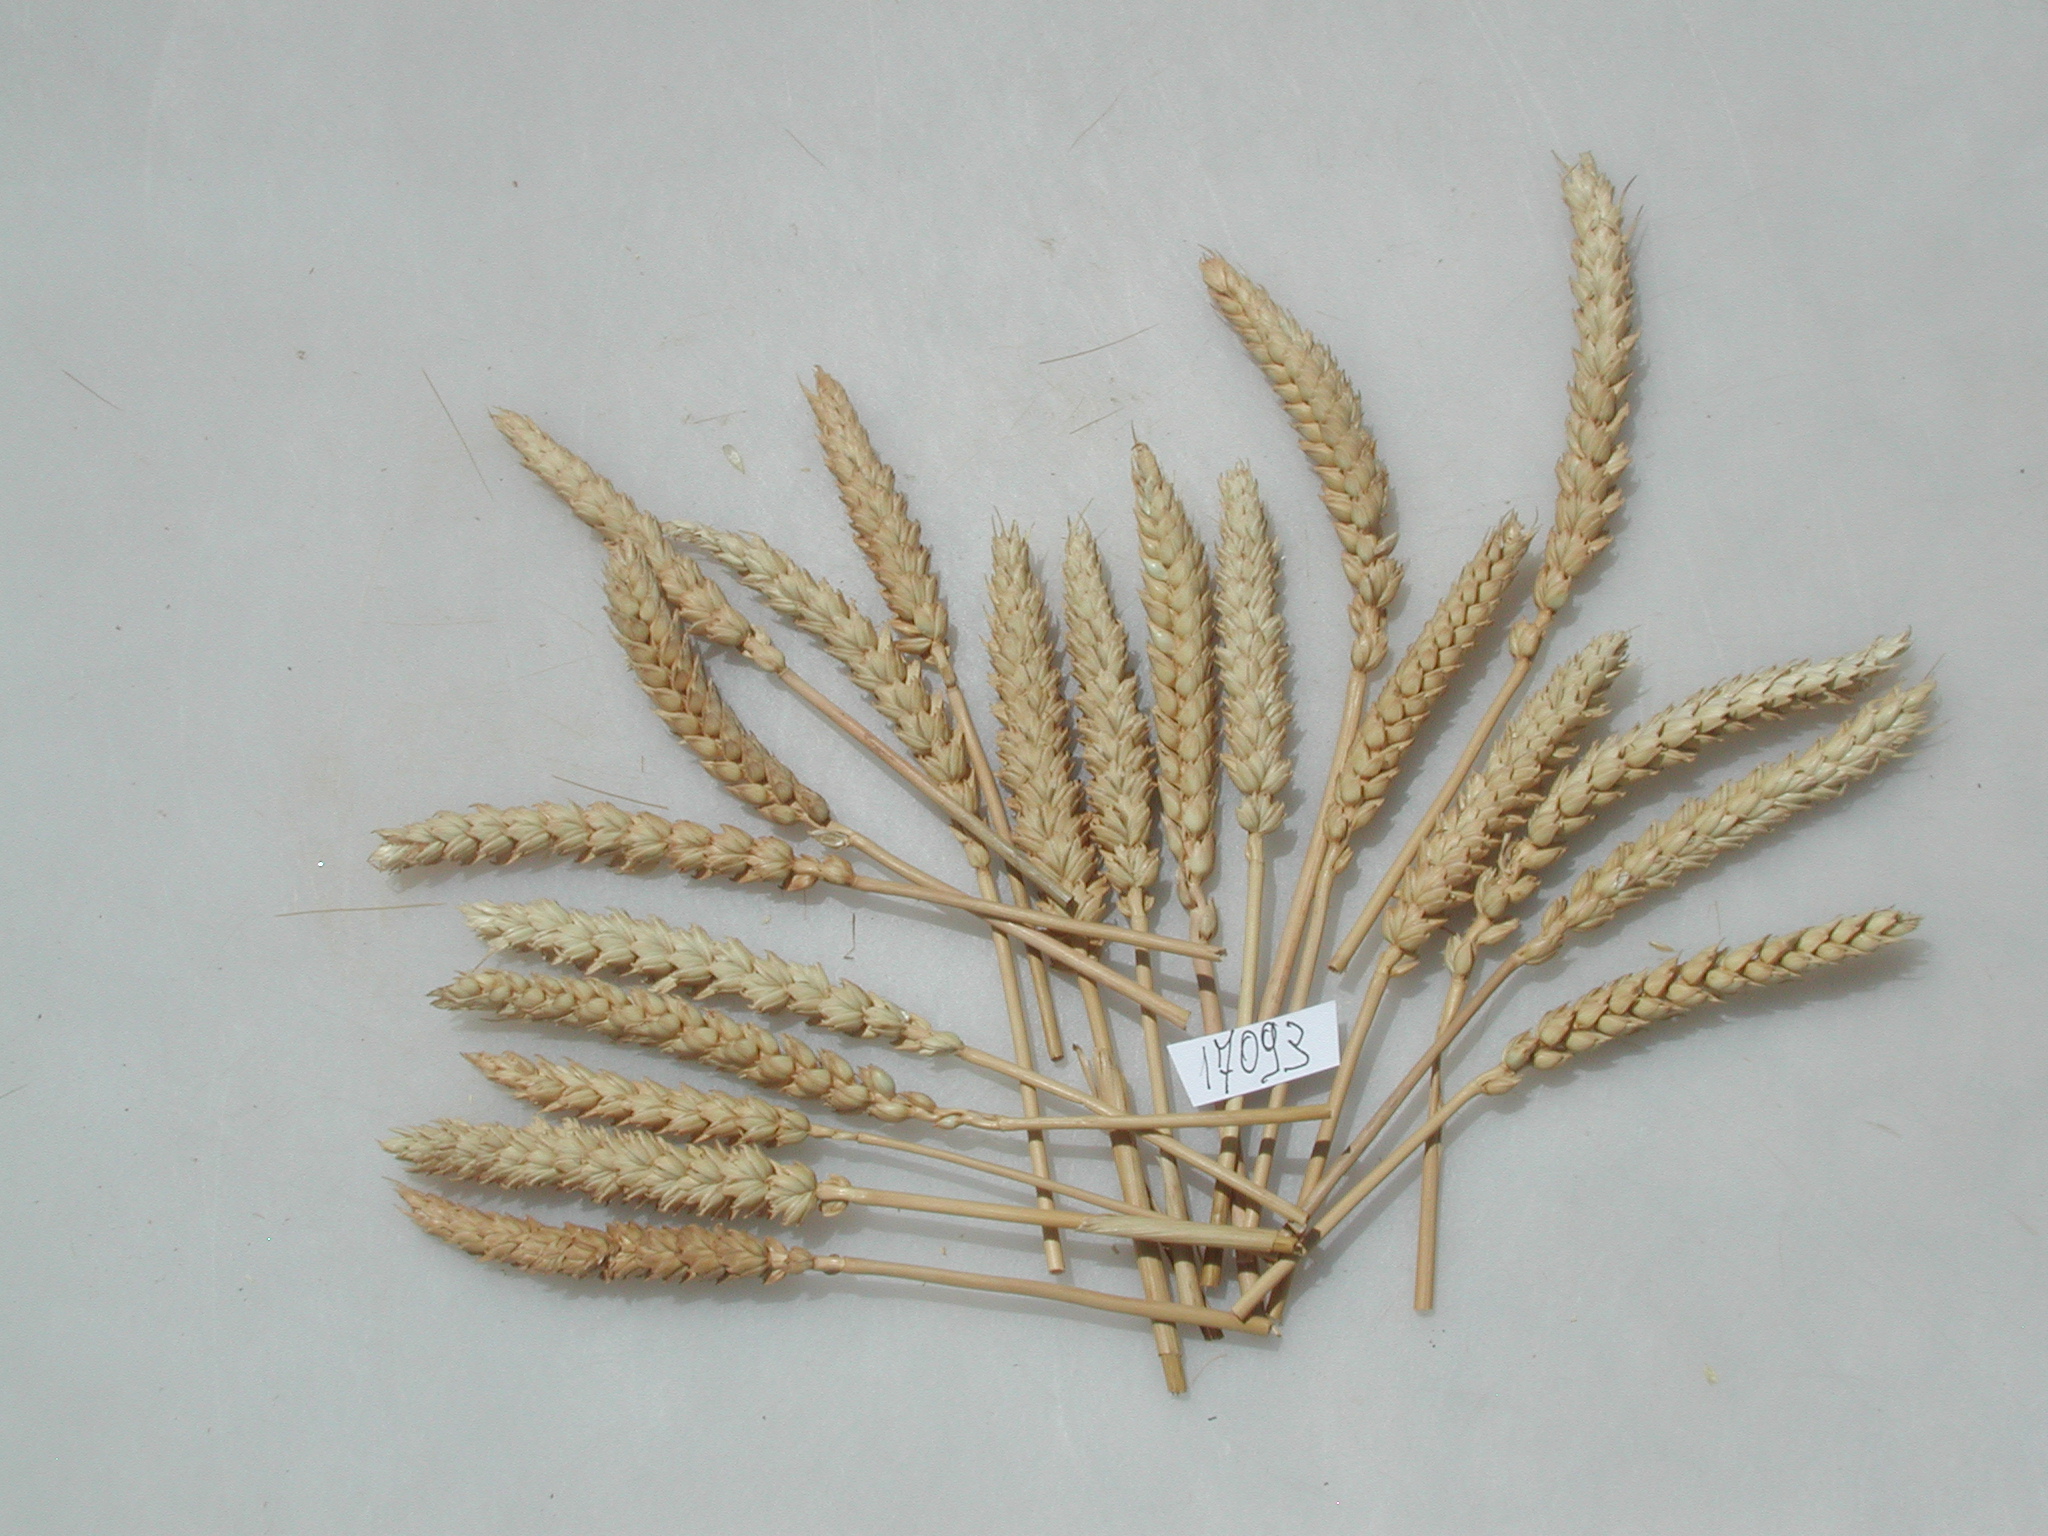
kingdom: Plantae
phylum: Tracheophyta
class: Liliopsida
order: Poales
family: Poaceae
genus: Triticum
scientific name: Triticum
